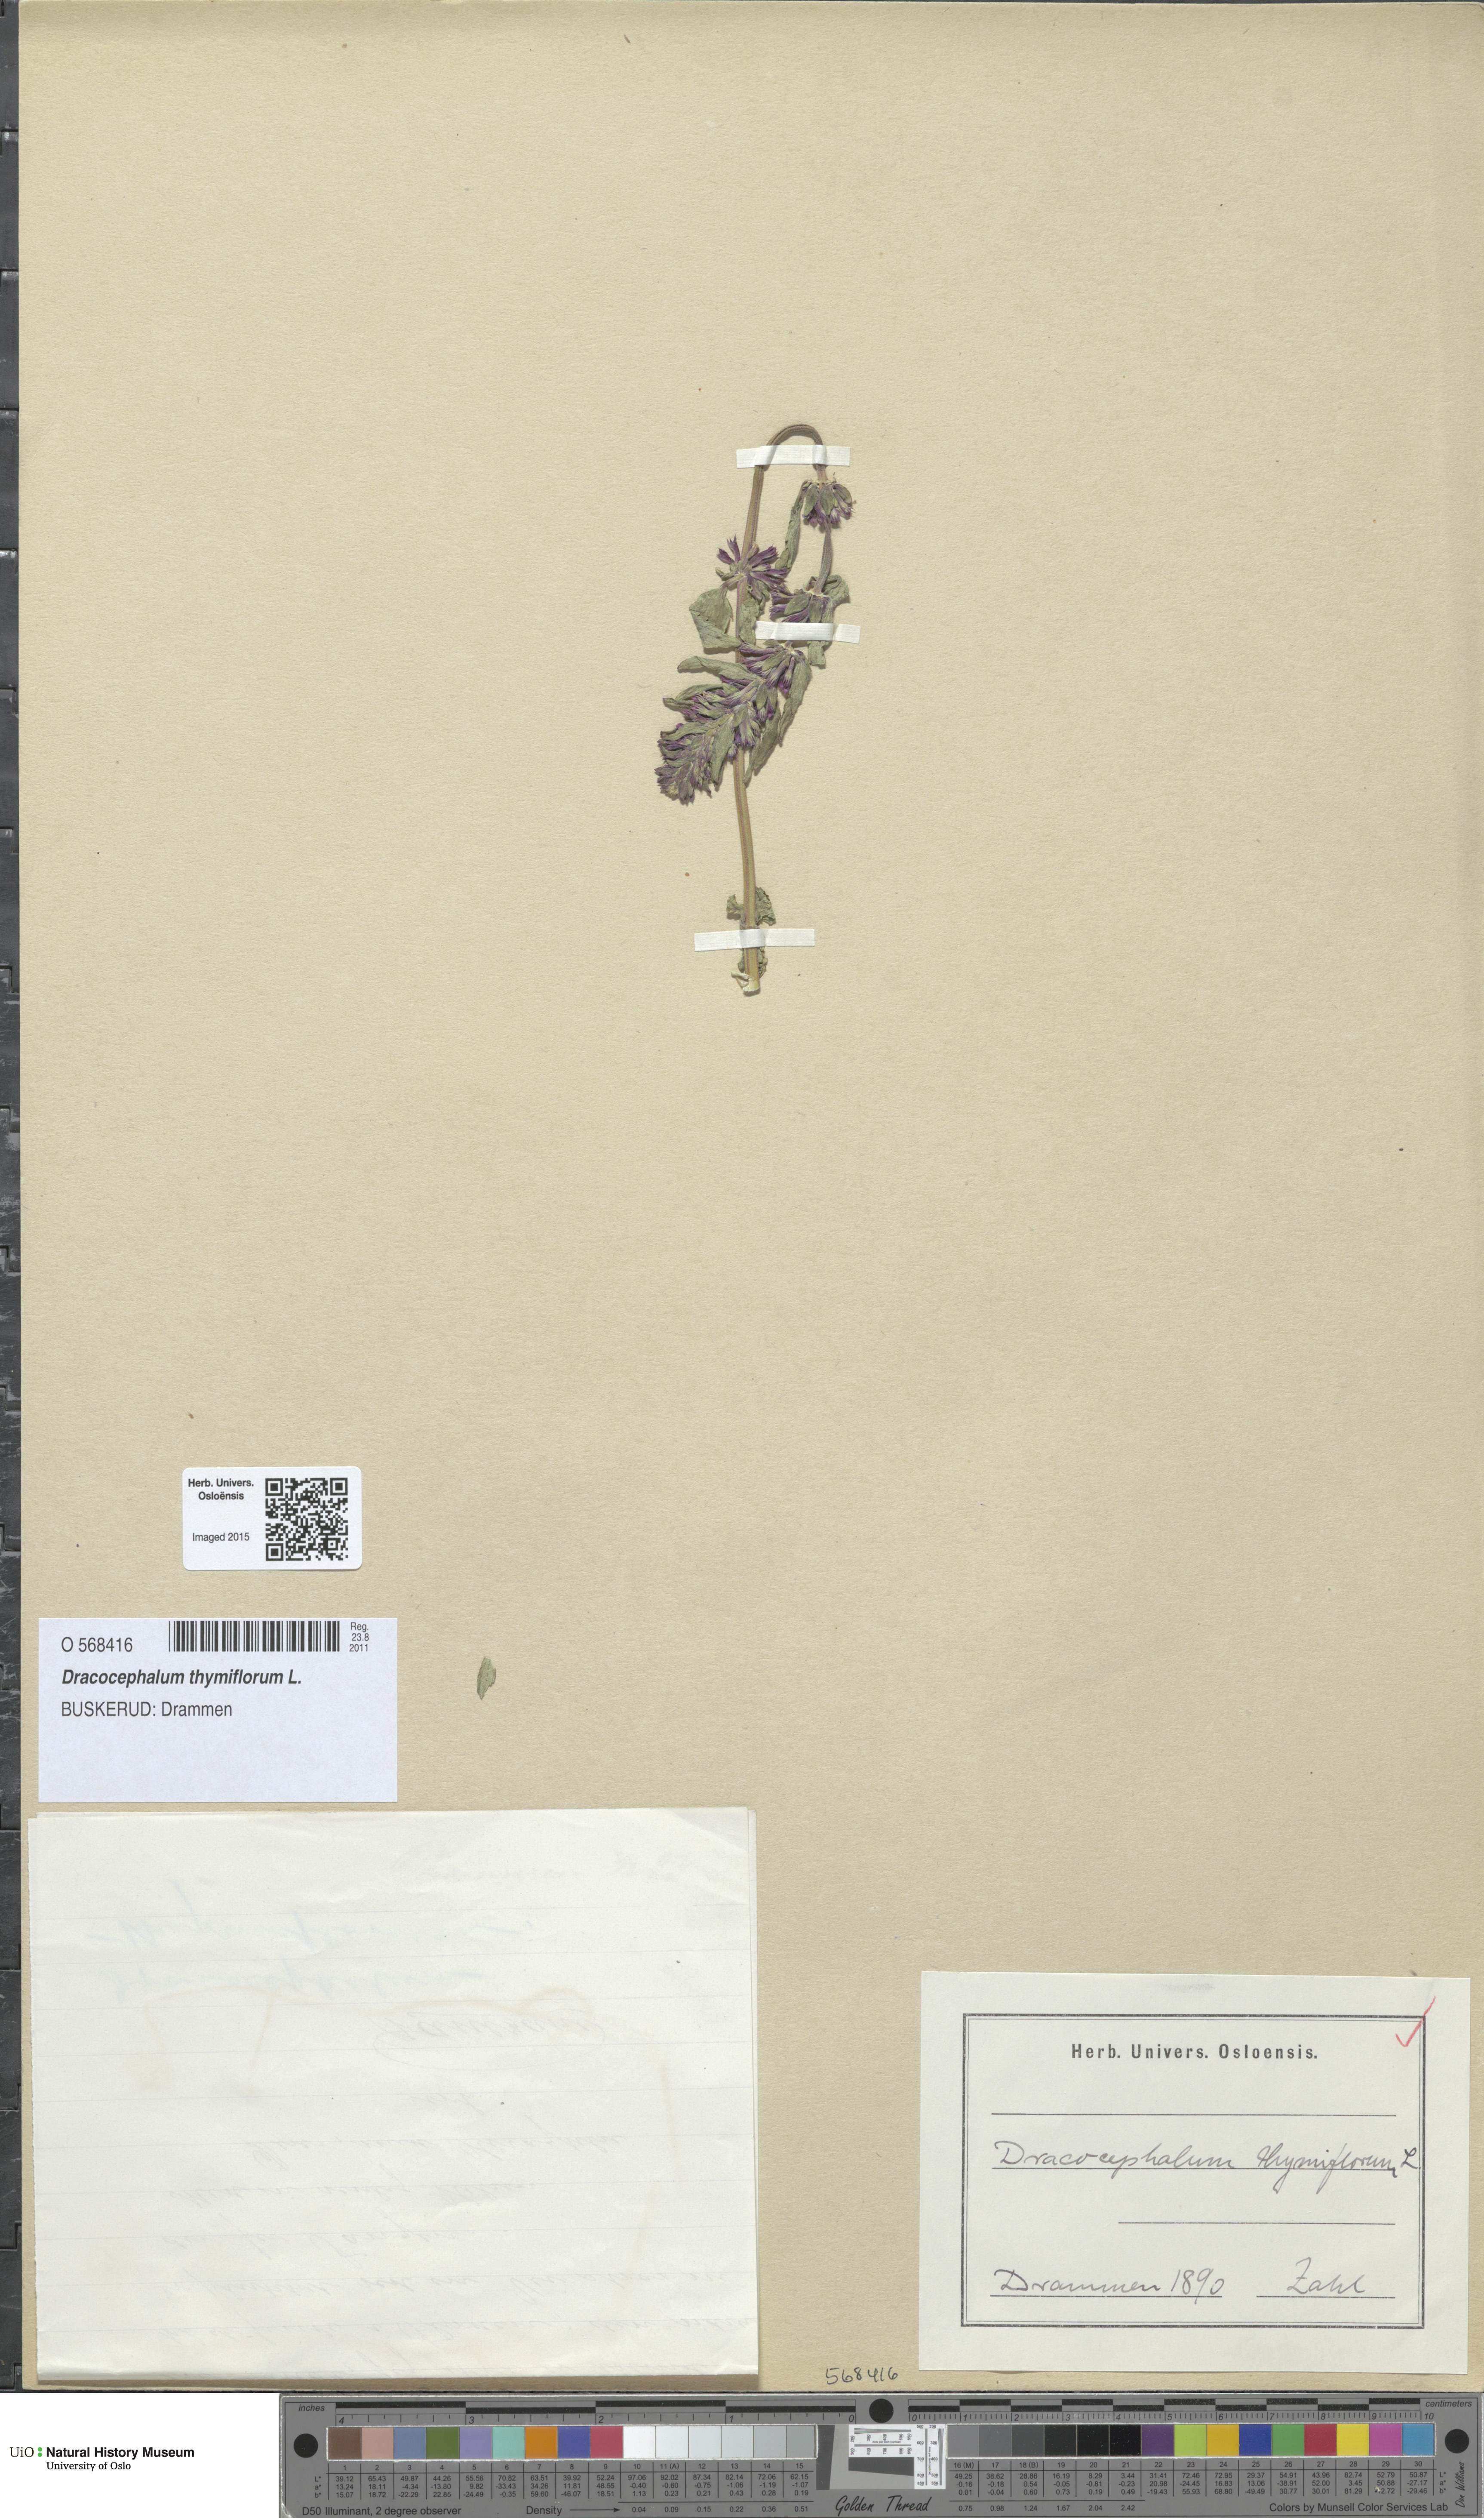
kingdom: Plantae
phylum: Tracheophyta
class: Magnoliopsida
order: Lamiales
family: Lamiaceae
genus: Dracocephalum
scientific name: Dracocephalum thymiflorum
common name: Thymeleaf dragonhead
